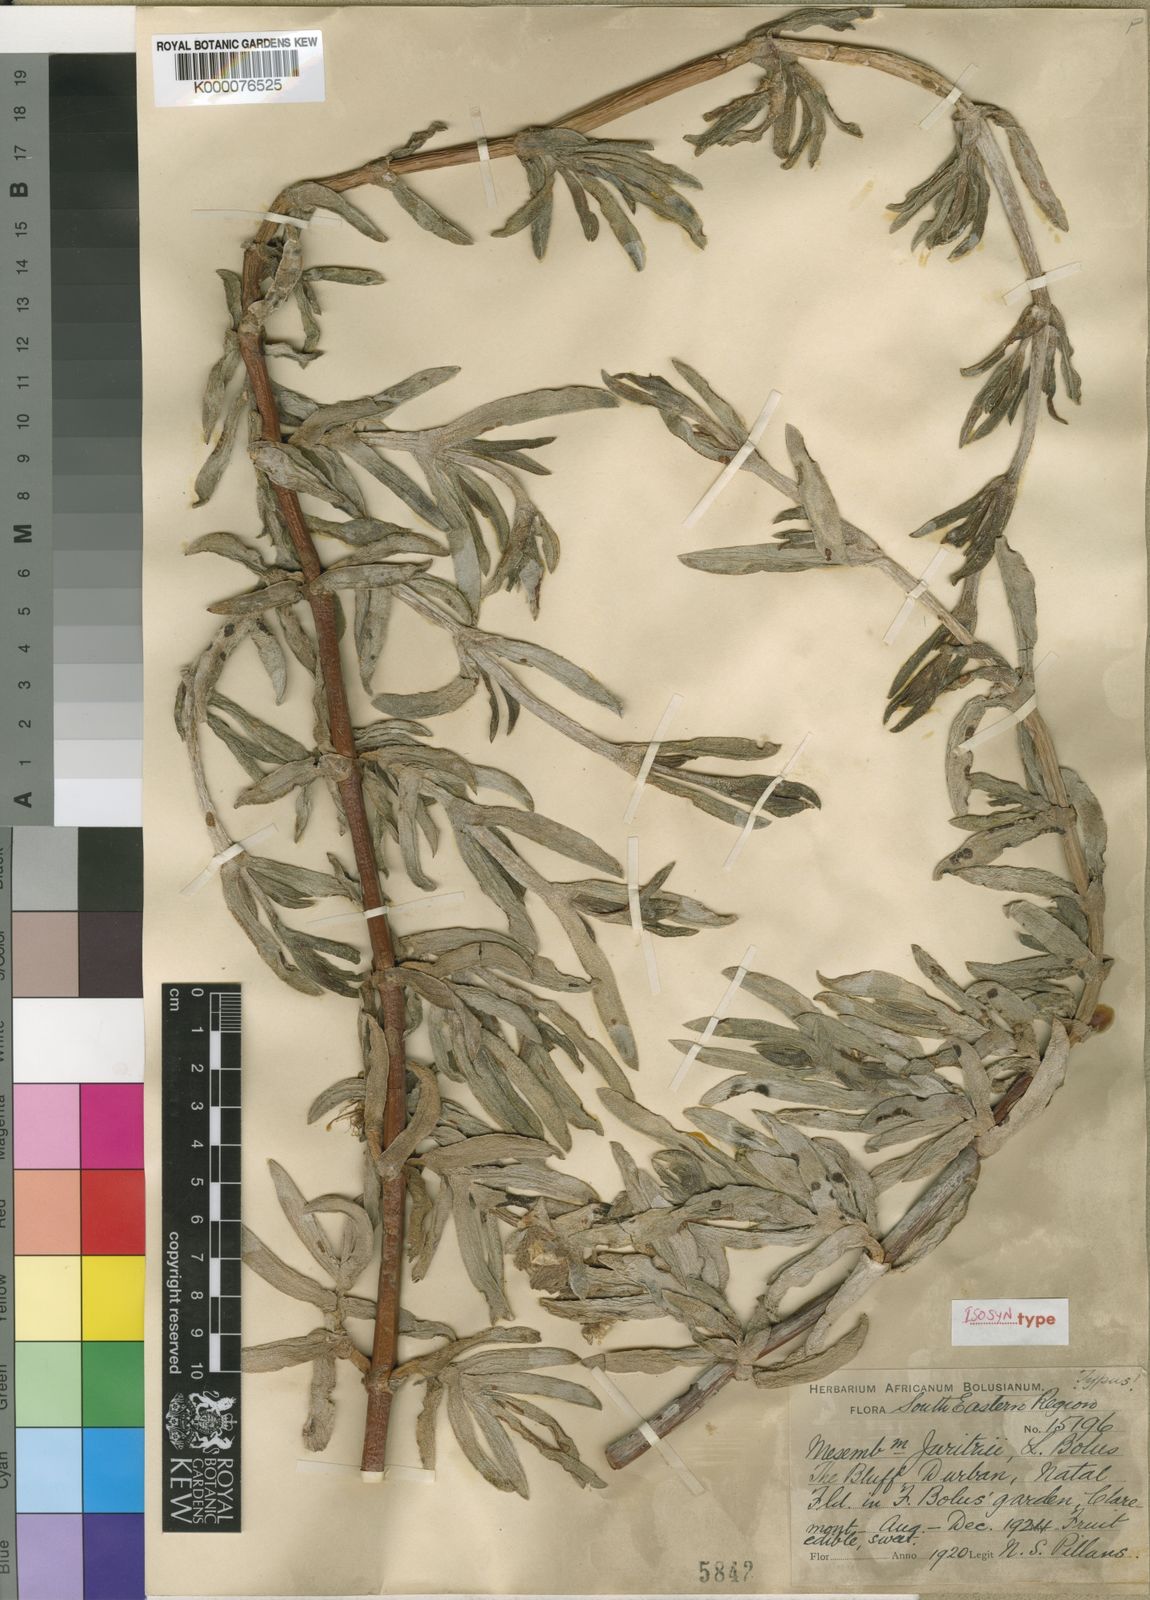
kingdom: Plantae
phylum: Tracheophyta
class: Magnoliopsida
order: Caryophyllales
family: Aizoaceae
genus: Carpobrotus
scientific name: Carpobrotus dimidiatus
